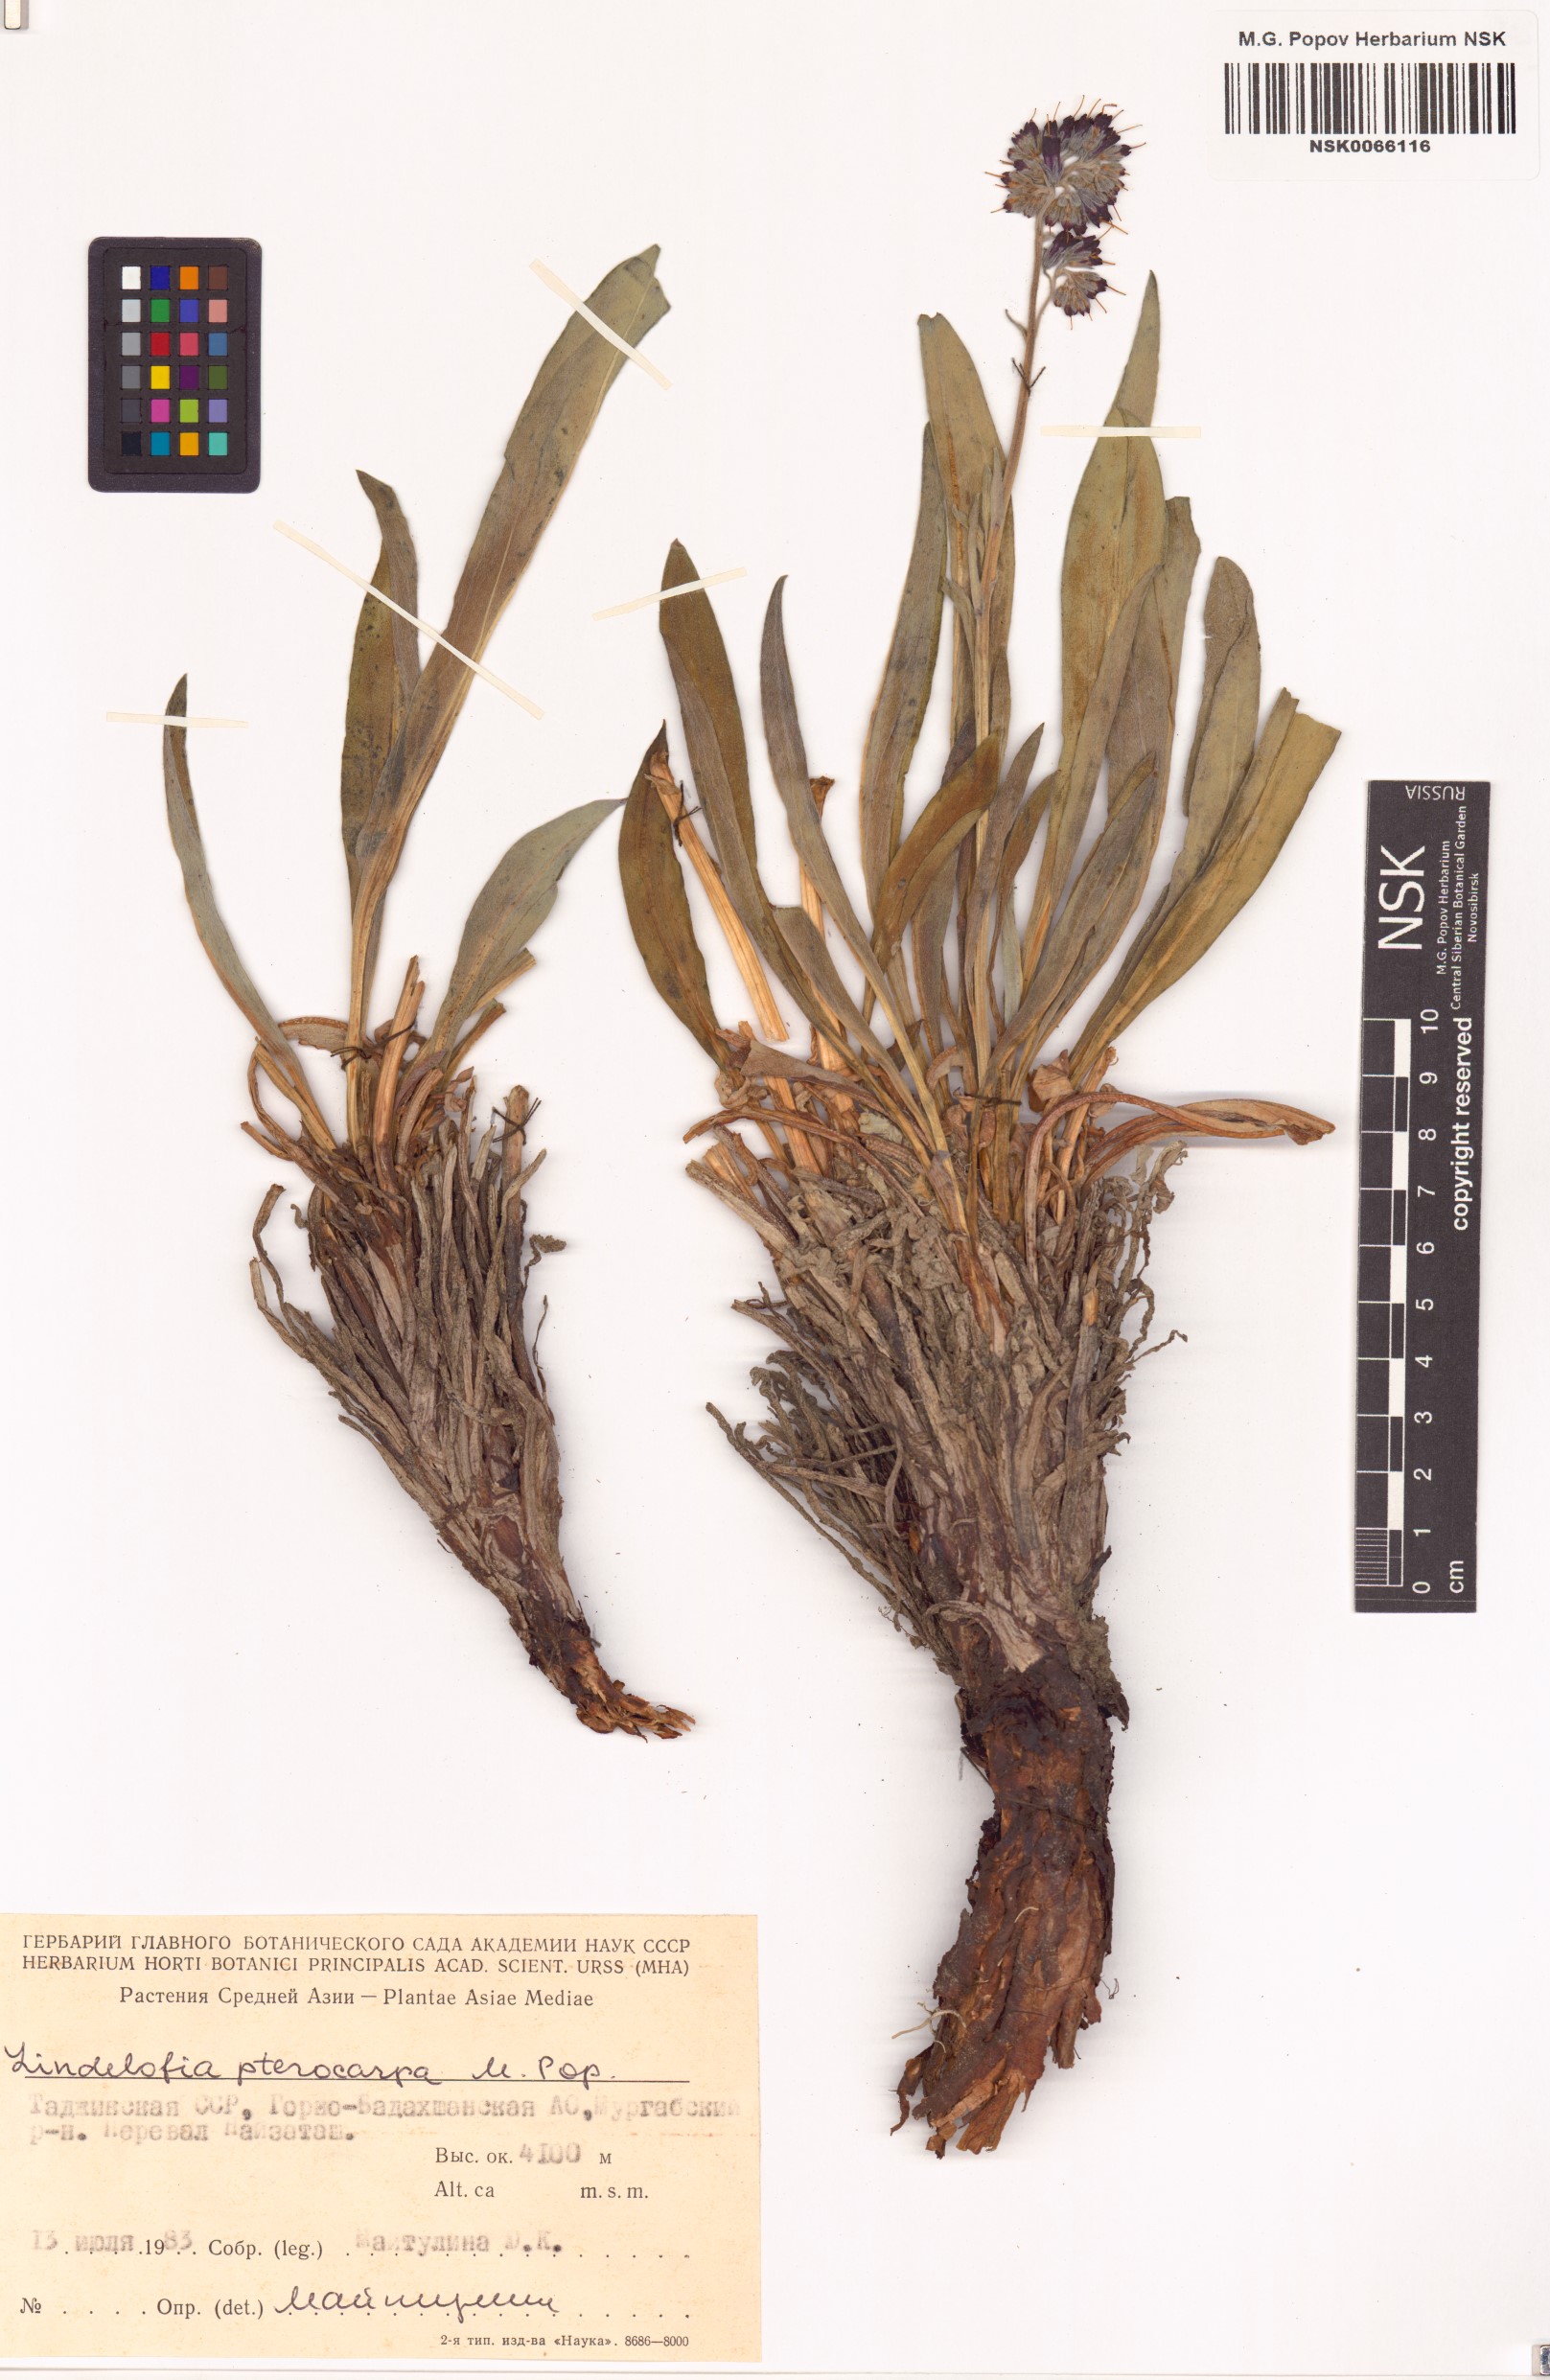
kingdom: Plantae
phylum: Tracheophyta
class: Magnoliopsida
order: Boraginales
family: Boraginaceae
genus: Lindelofia
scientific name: Lindelofia stylosa
